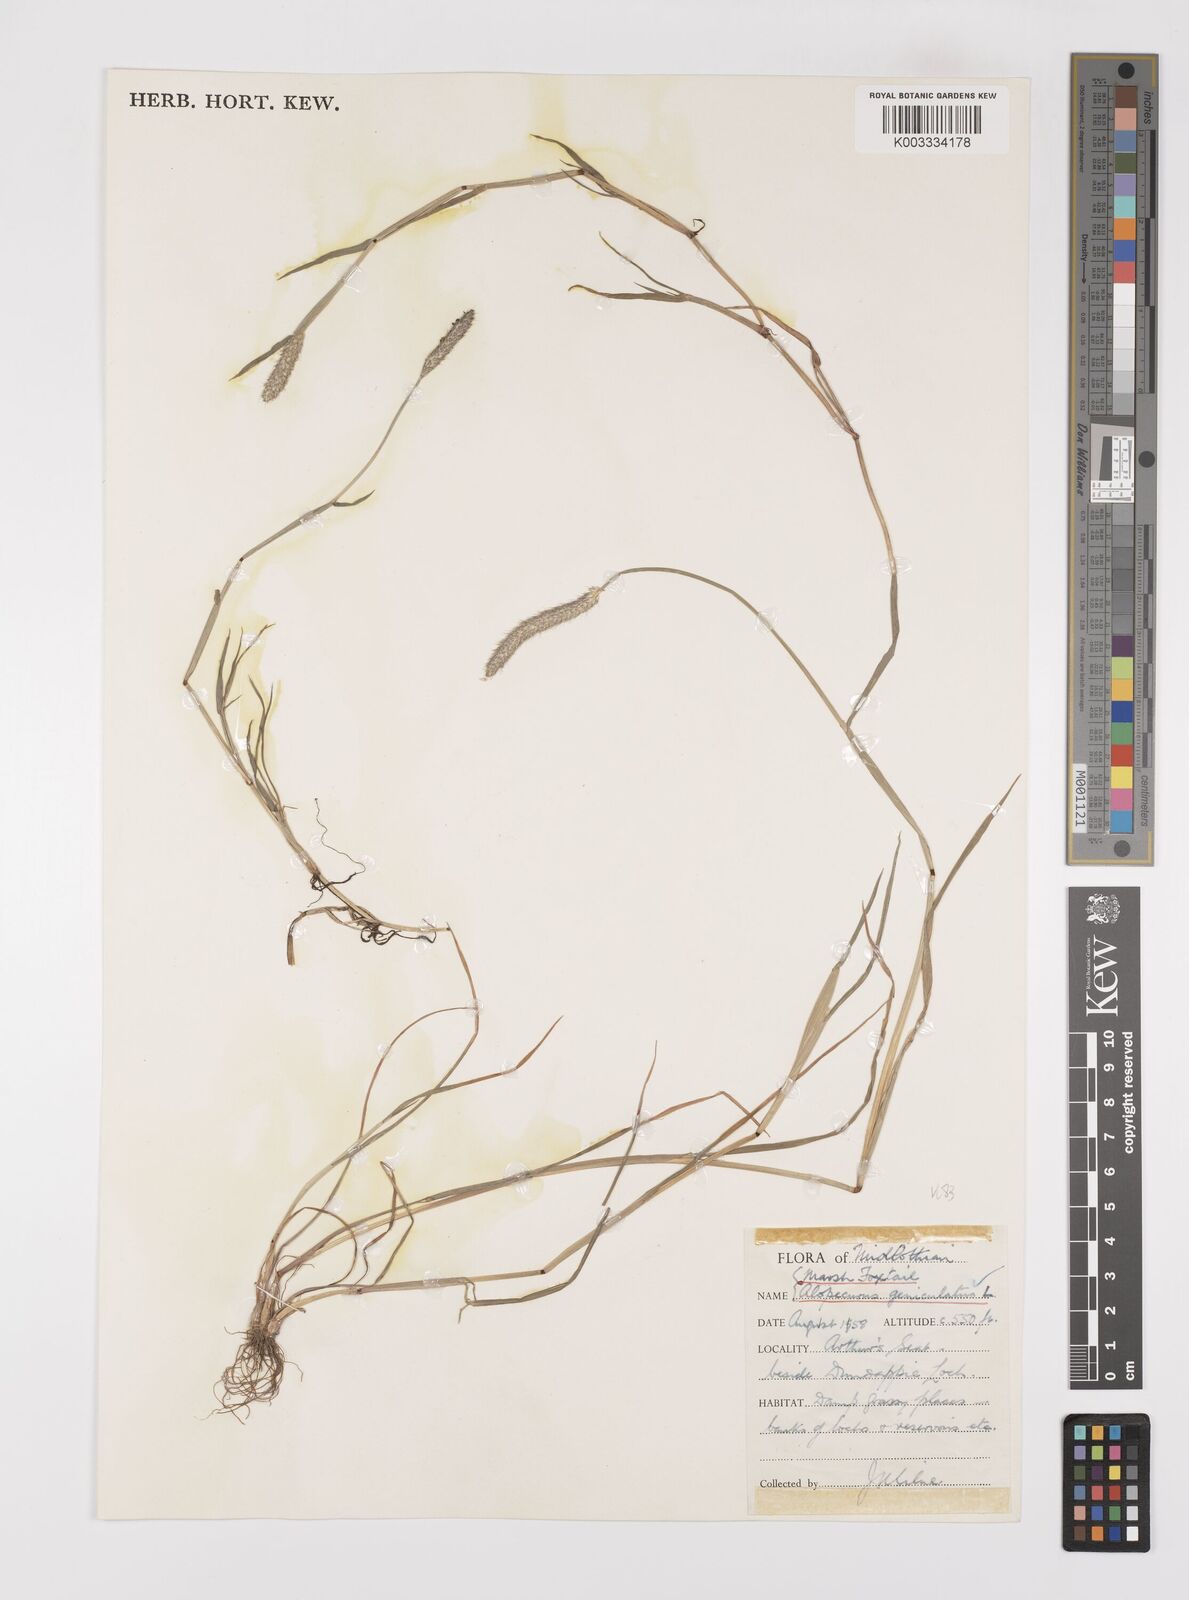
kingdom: Plantae
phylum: Tracheophyta
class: Liliopsida
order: Poales
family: Poaceae
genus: Alopecurus
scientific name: Alopecurus geniculatus
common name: Water foxtail
